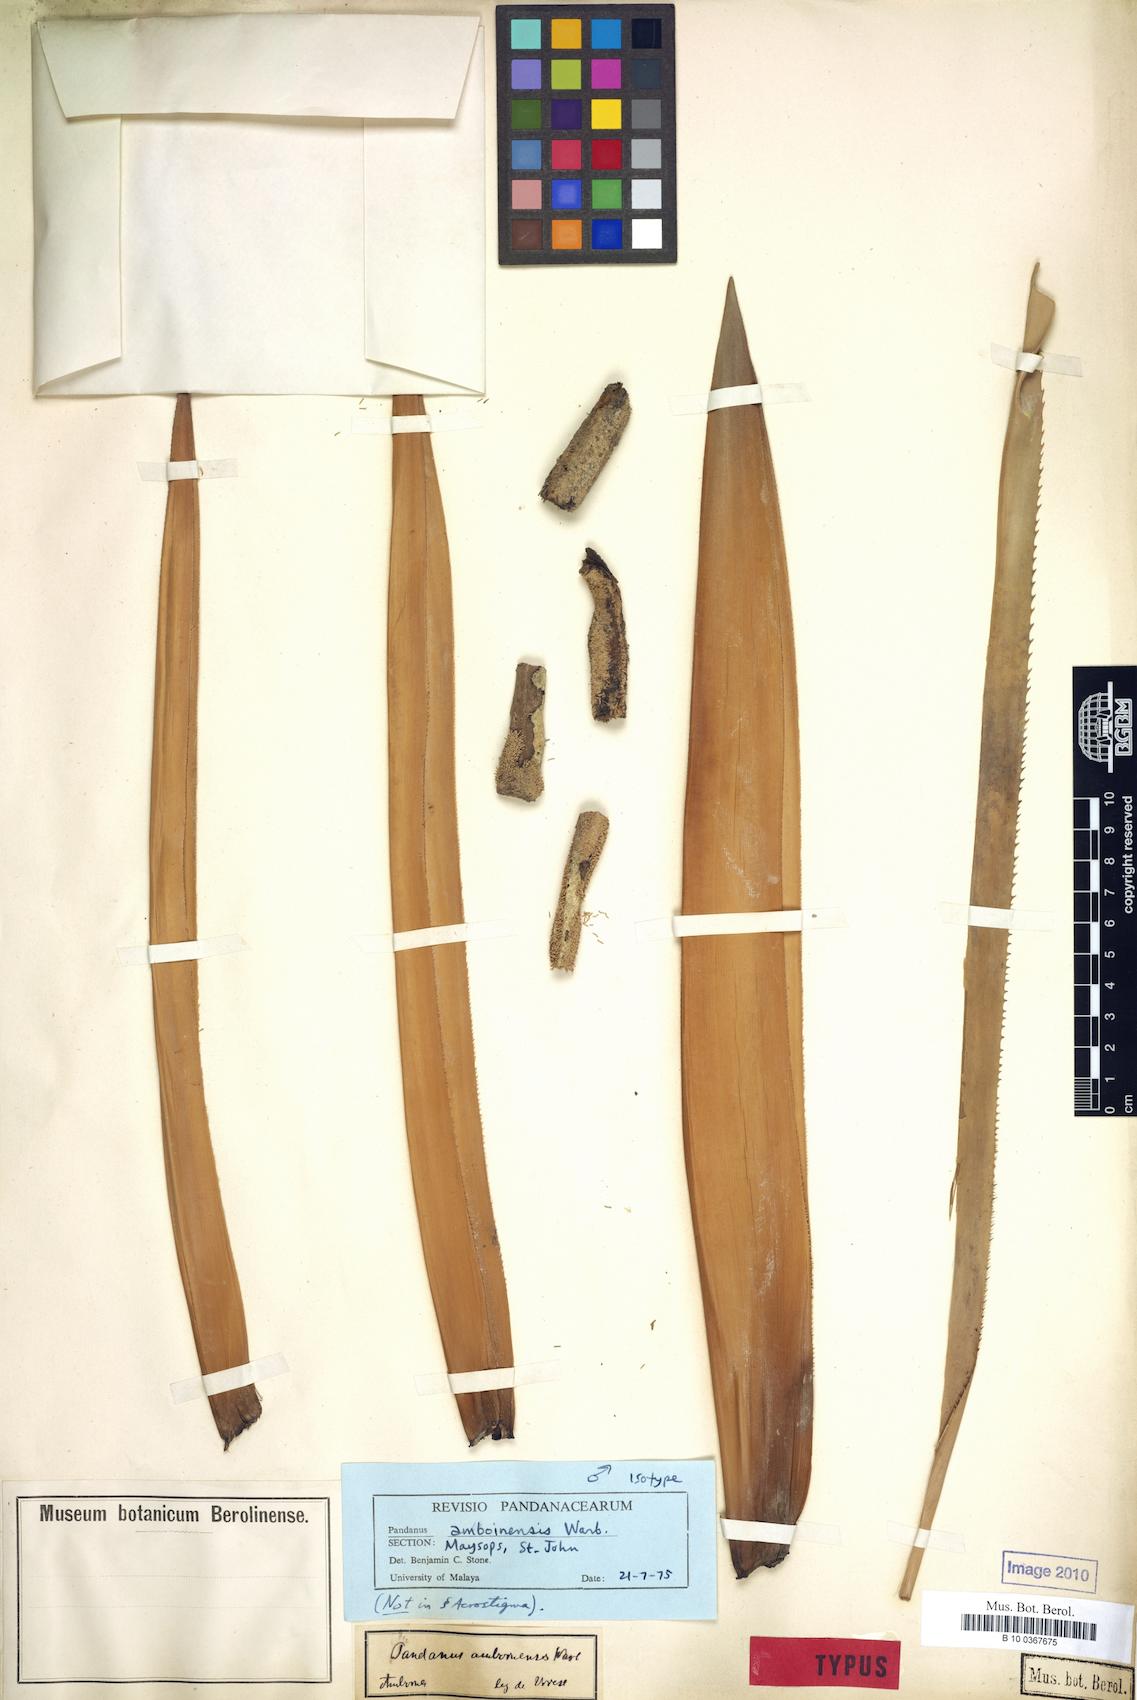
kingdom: Plantae
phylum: Tracheophyta
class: Liliopsida
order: Pandanales
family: Pandanaceae
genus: Pandanus
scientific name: Pandanus krauelianus
